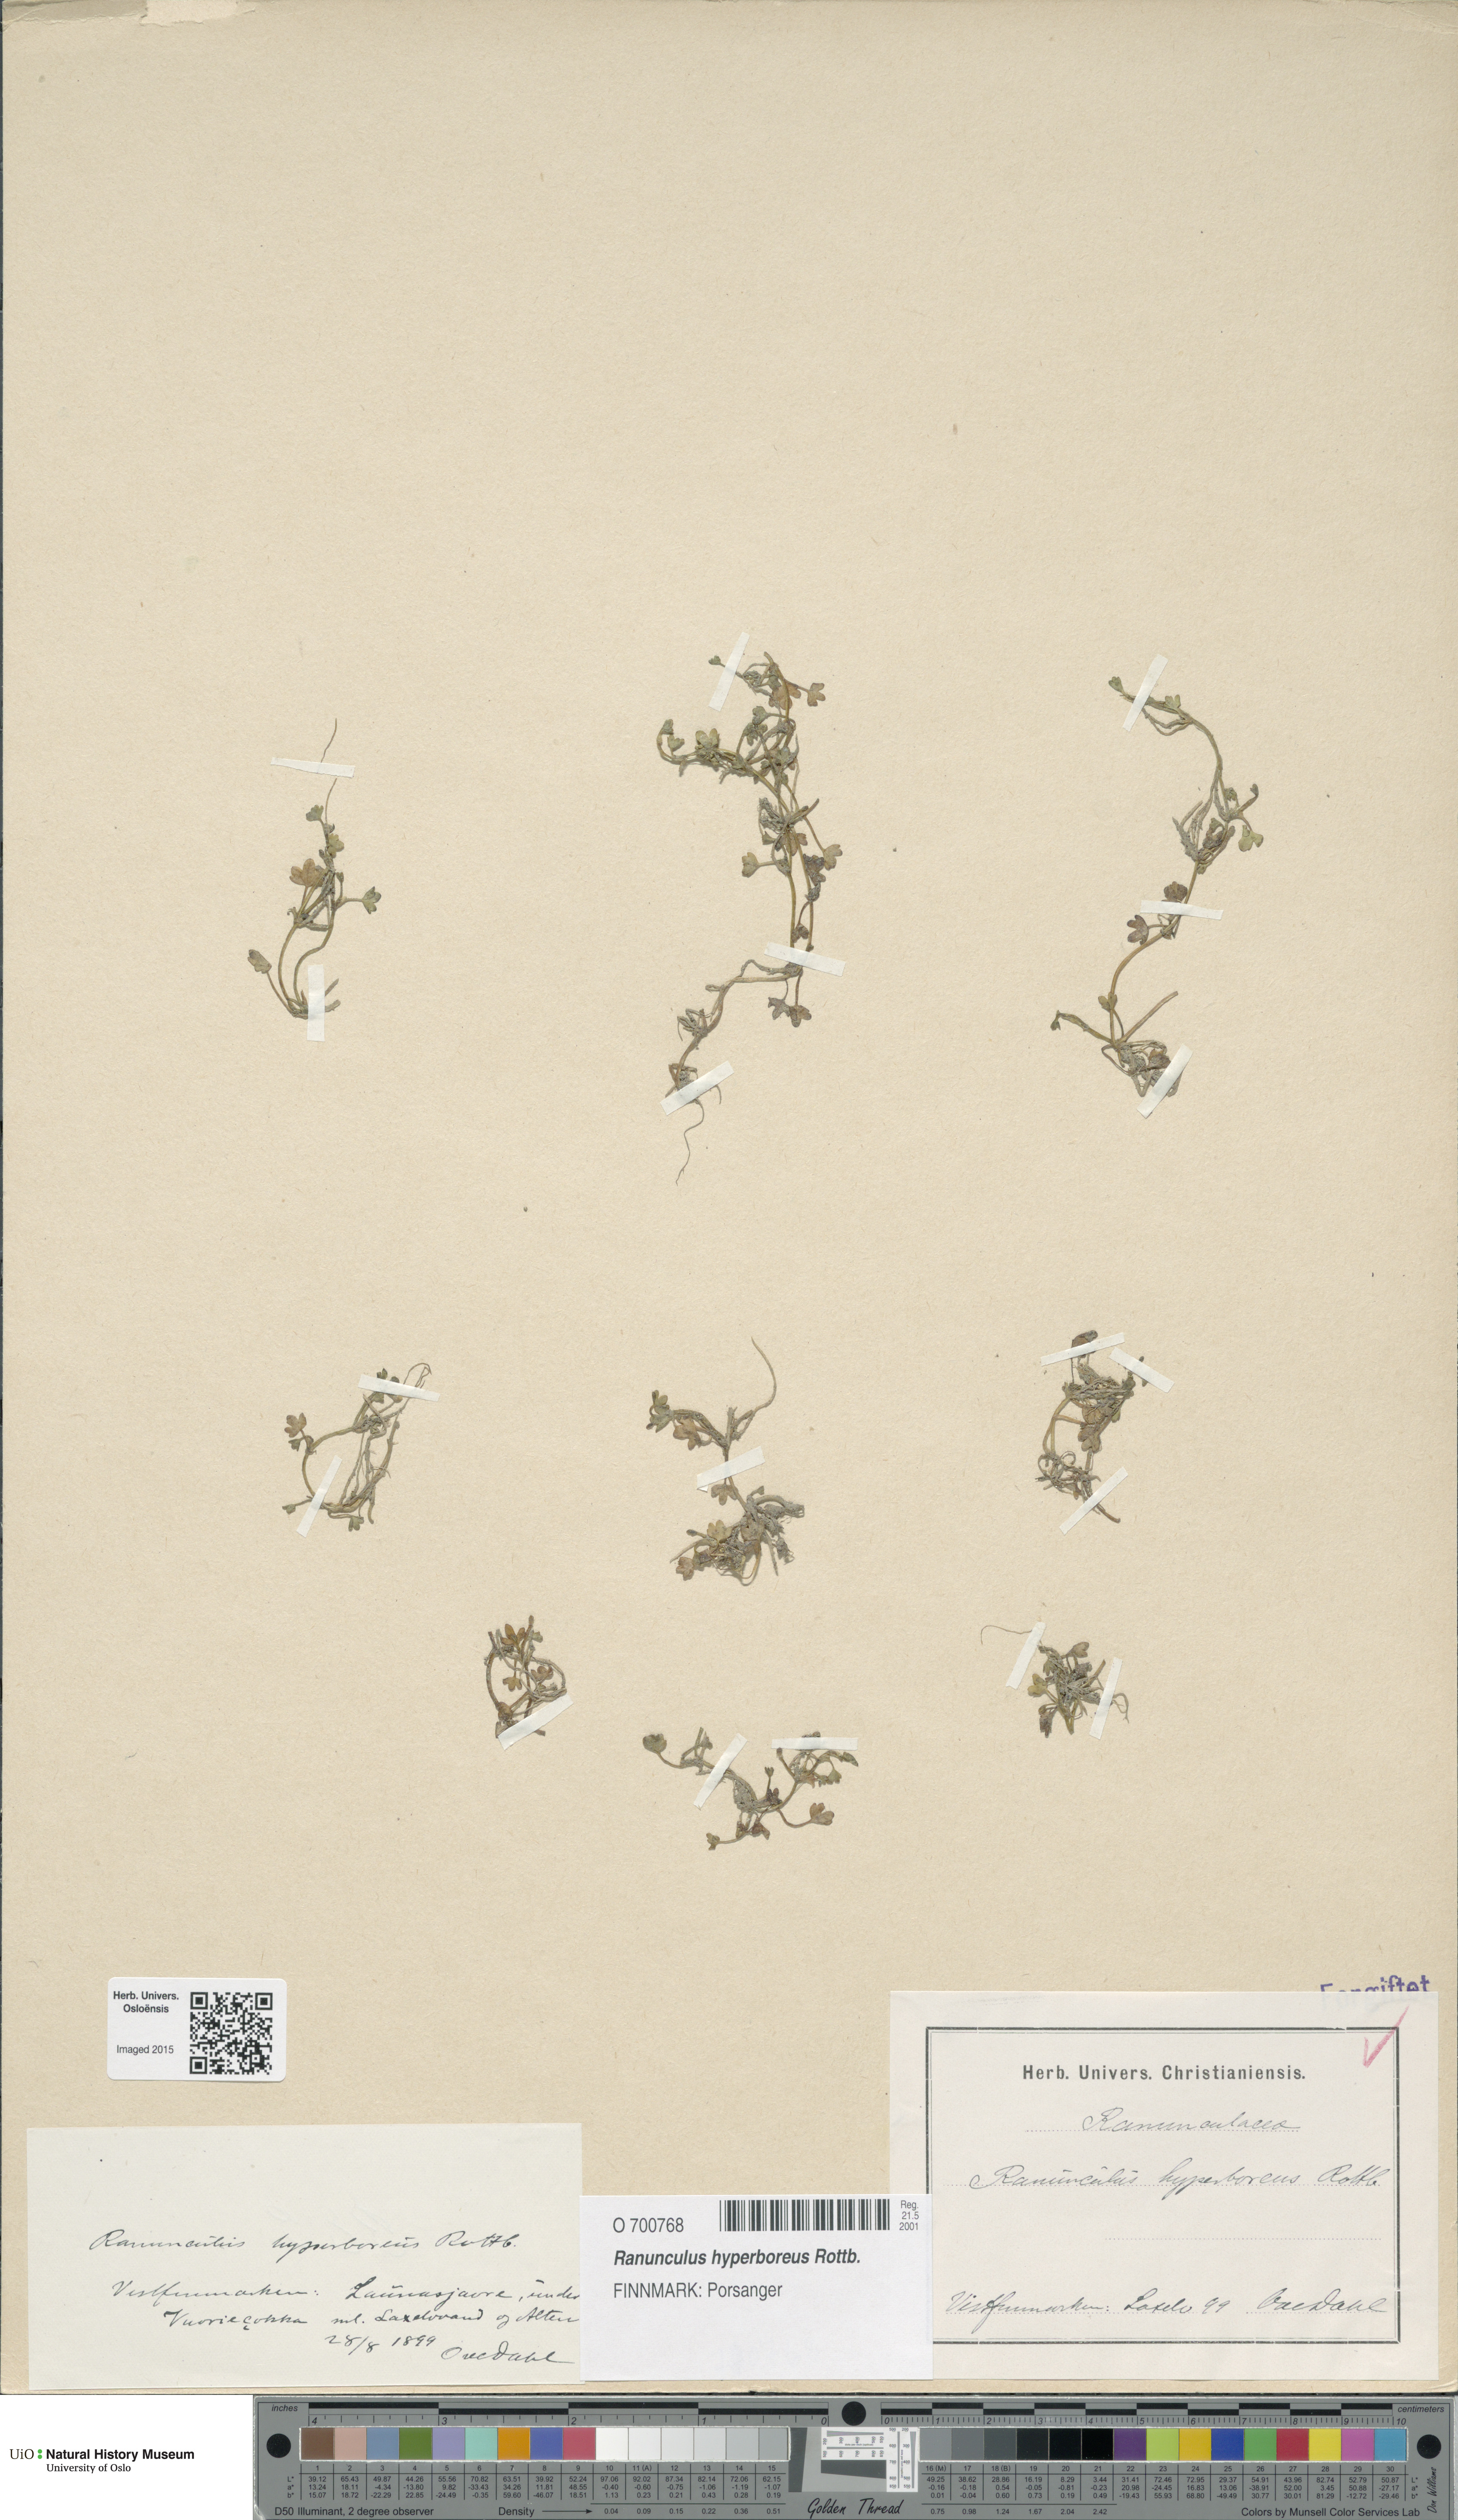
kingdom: Plantae
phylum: Tracheophyta
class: Magnoliopsida
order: Ranunculales
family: Ranunculaceae
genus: Ranunculus
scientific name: Ranunculus hyperboreus
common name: Arctic buttercup
